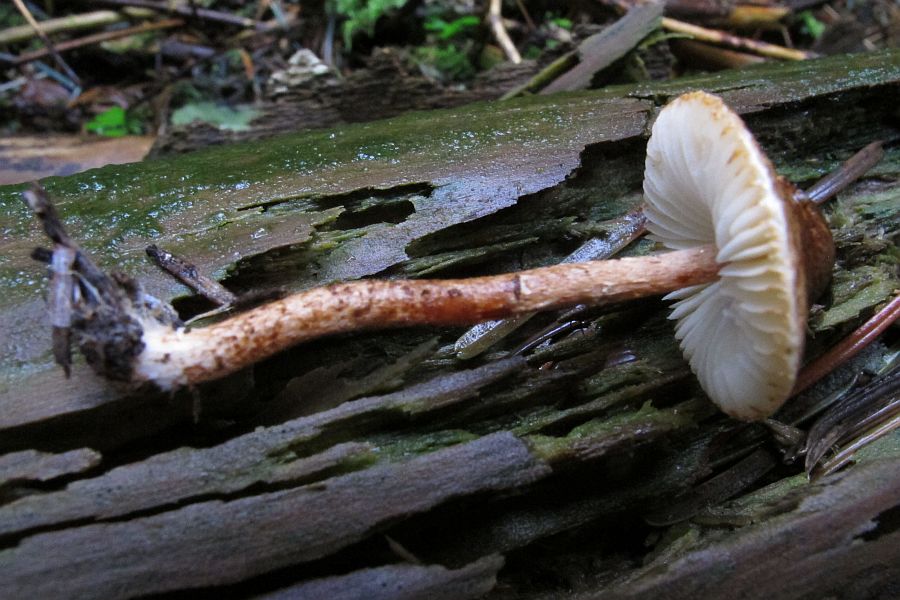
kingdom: Fungi
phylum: Basidiomycota
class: Agaricomycetes
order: Agaricales
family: Agaricaceae
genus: Lepiota
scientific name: Lepiota castanea
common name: kastaniebrun parasolhat
